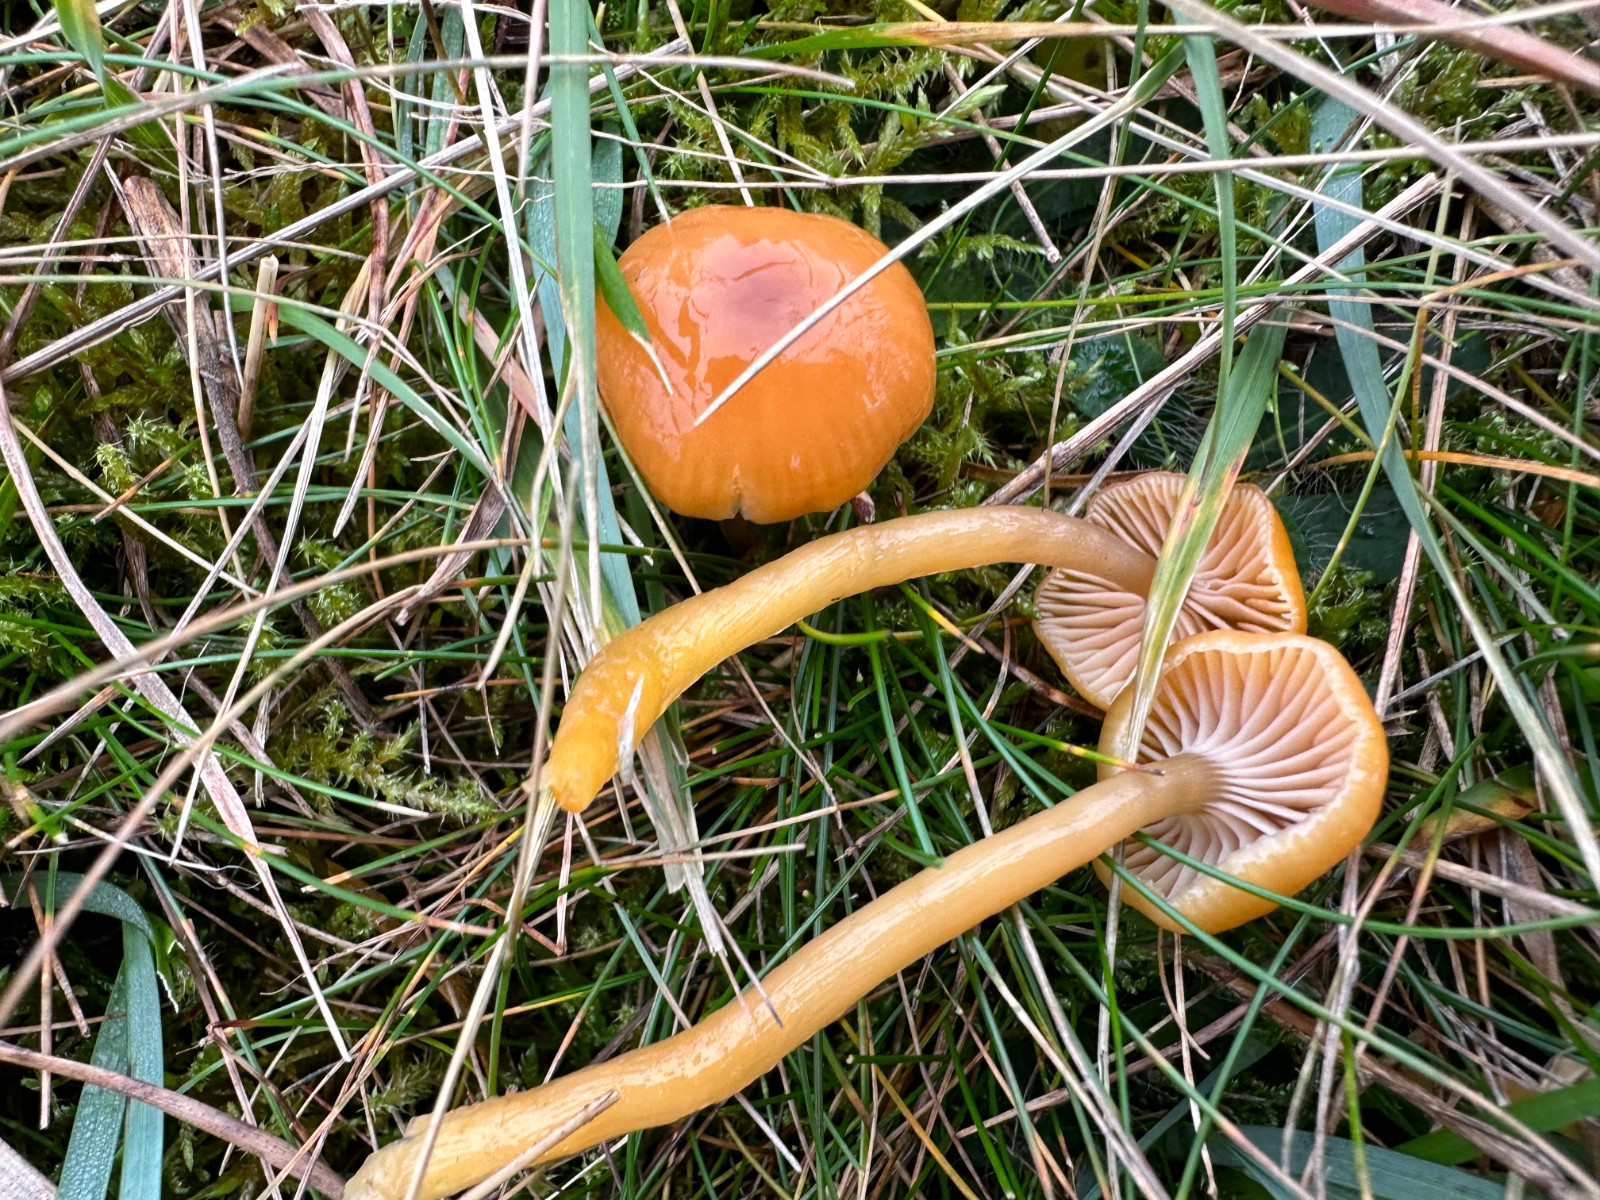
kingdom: Fungi
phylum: Basidiomycota
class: Agaricomycetes
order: Agaricales
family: Hygrophoraceae
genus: Gliophorus
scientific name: Gliophorus laetus
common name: brusk-vokshat
